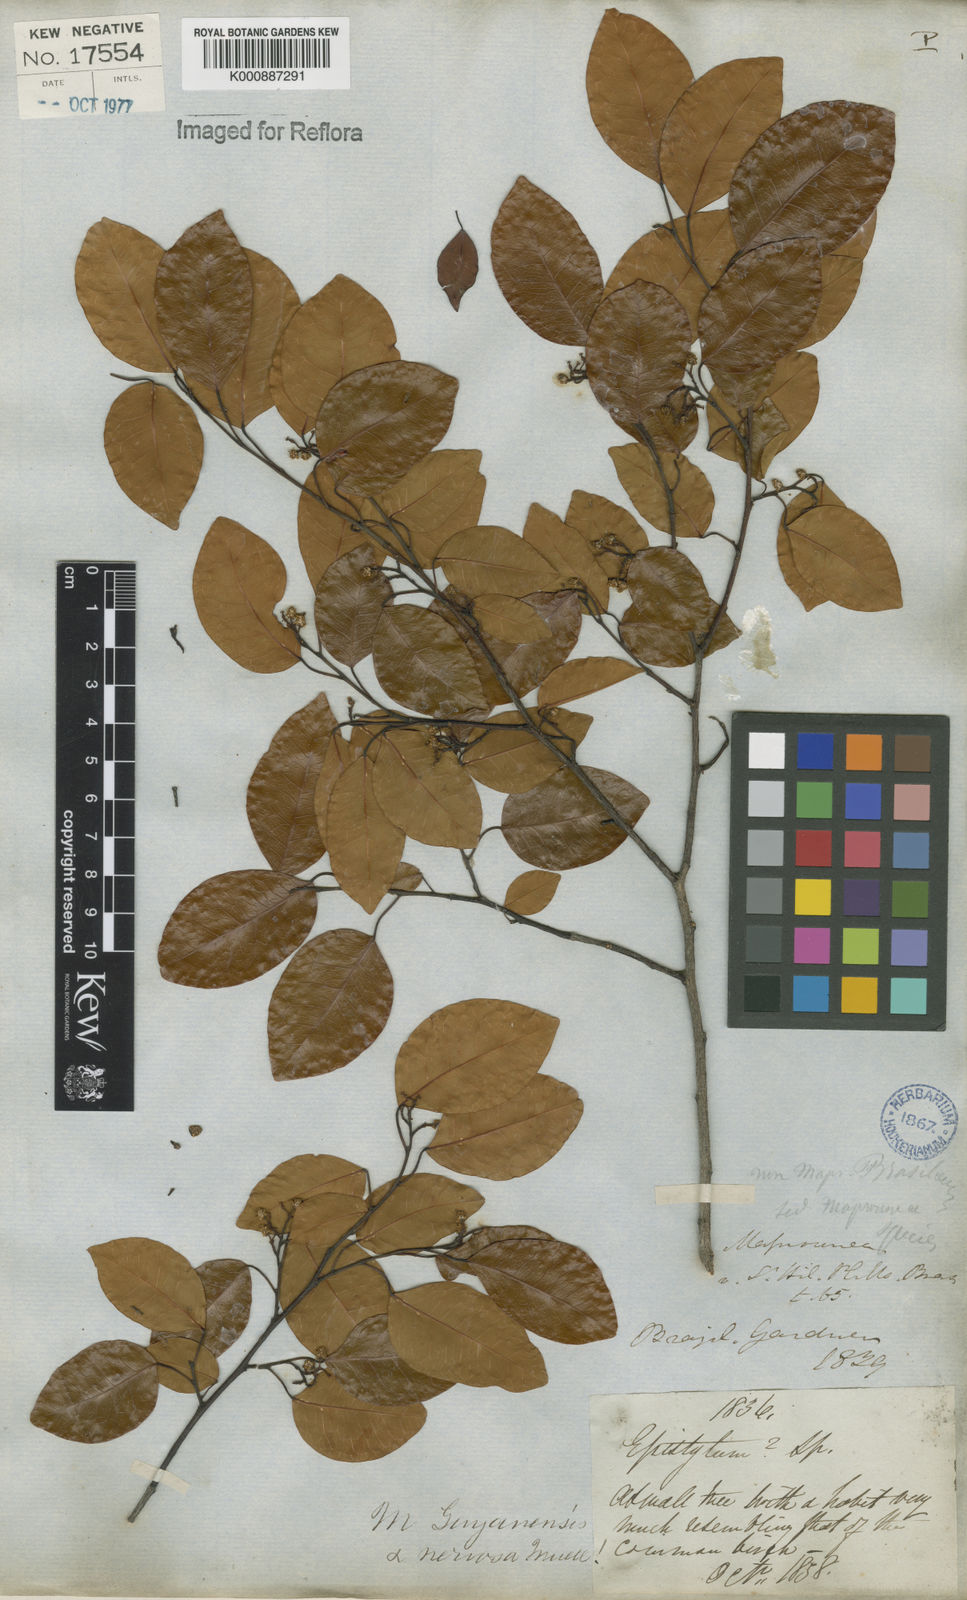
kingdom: Plantae
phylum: Tracheophyta
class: Magnoliopsida
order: Malpighiales
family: Euphorbiaceae
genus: Maprounea
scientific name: Maprounea guianensis
